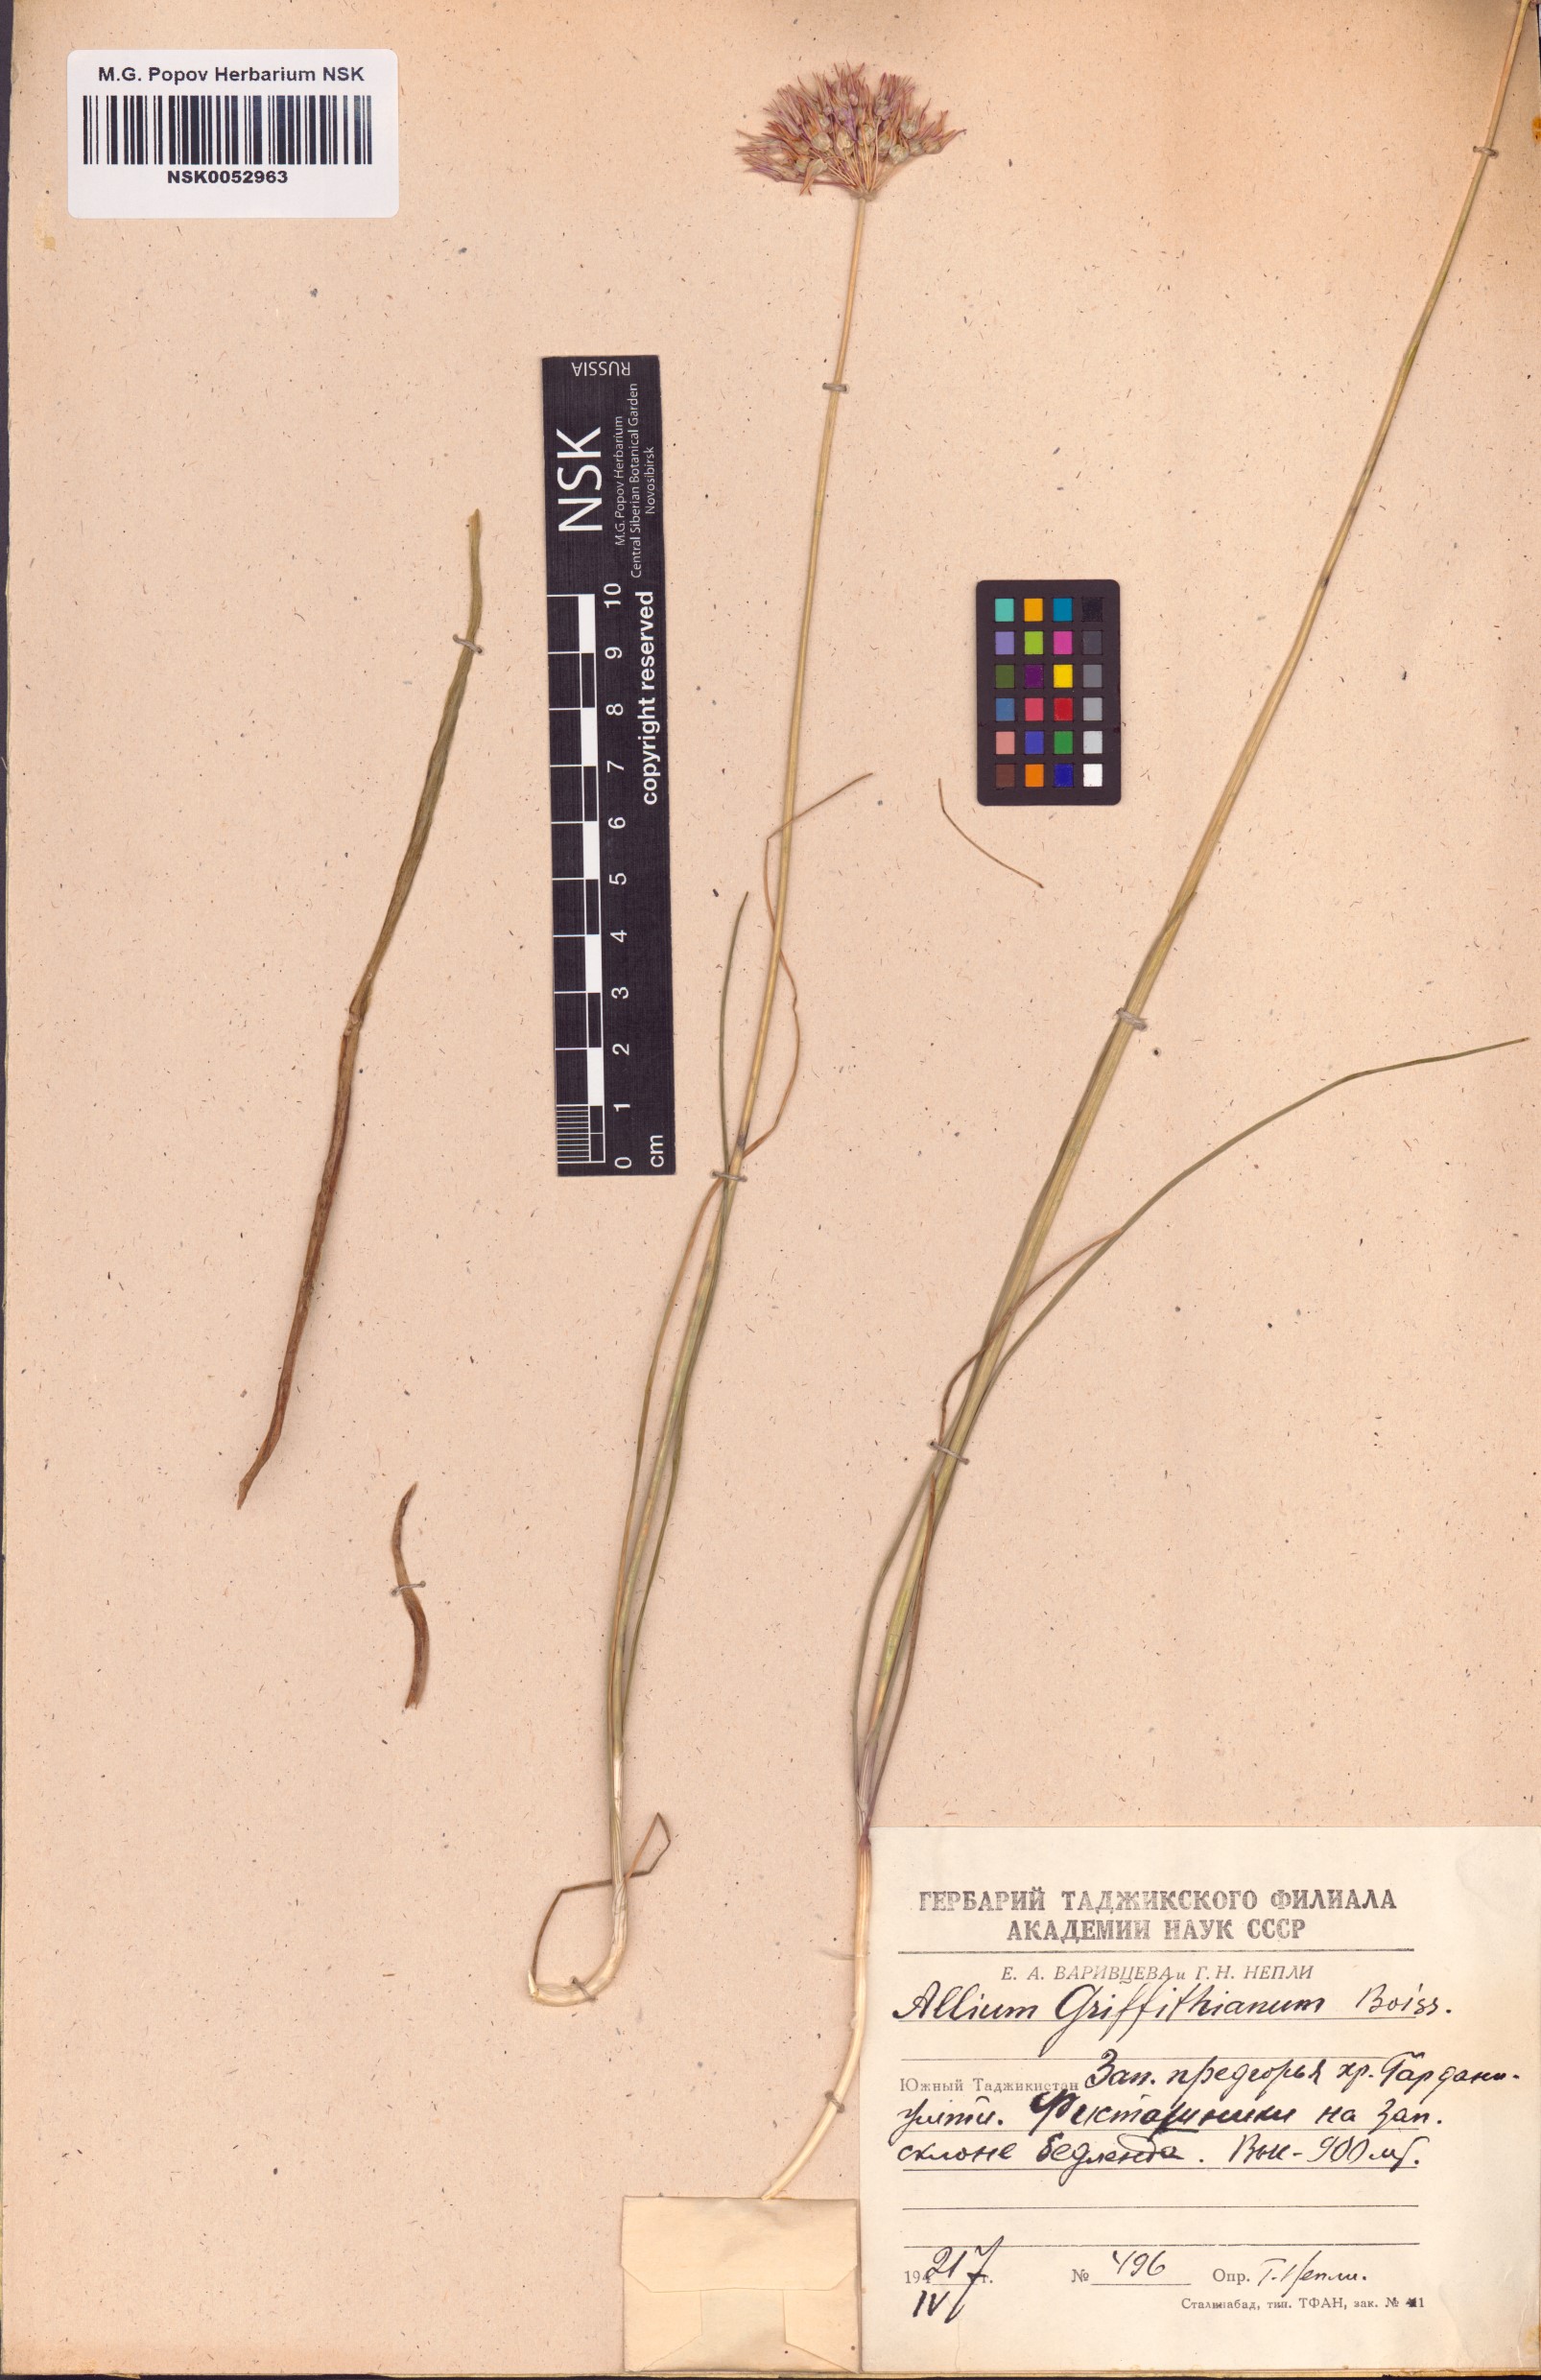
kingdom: Plantae
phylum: Tracheophyta
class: Liliopsida
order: Asparagales
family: Amaryllidaceae
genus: Allium
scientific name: Allium griffithianum
